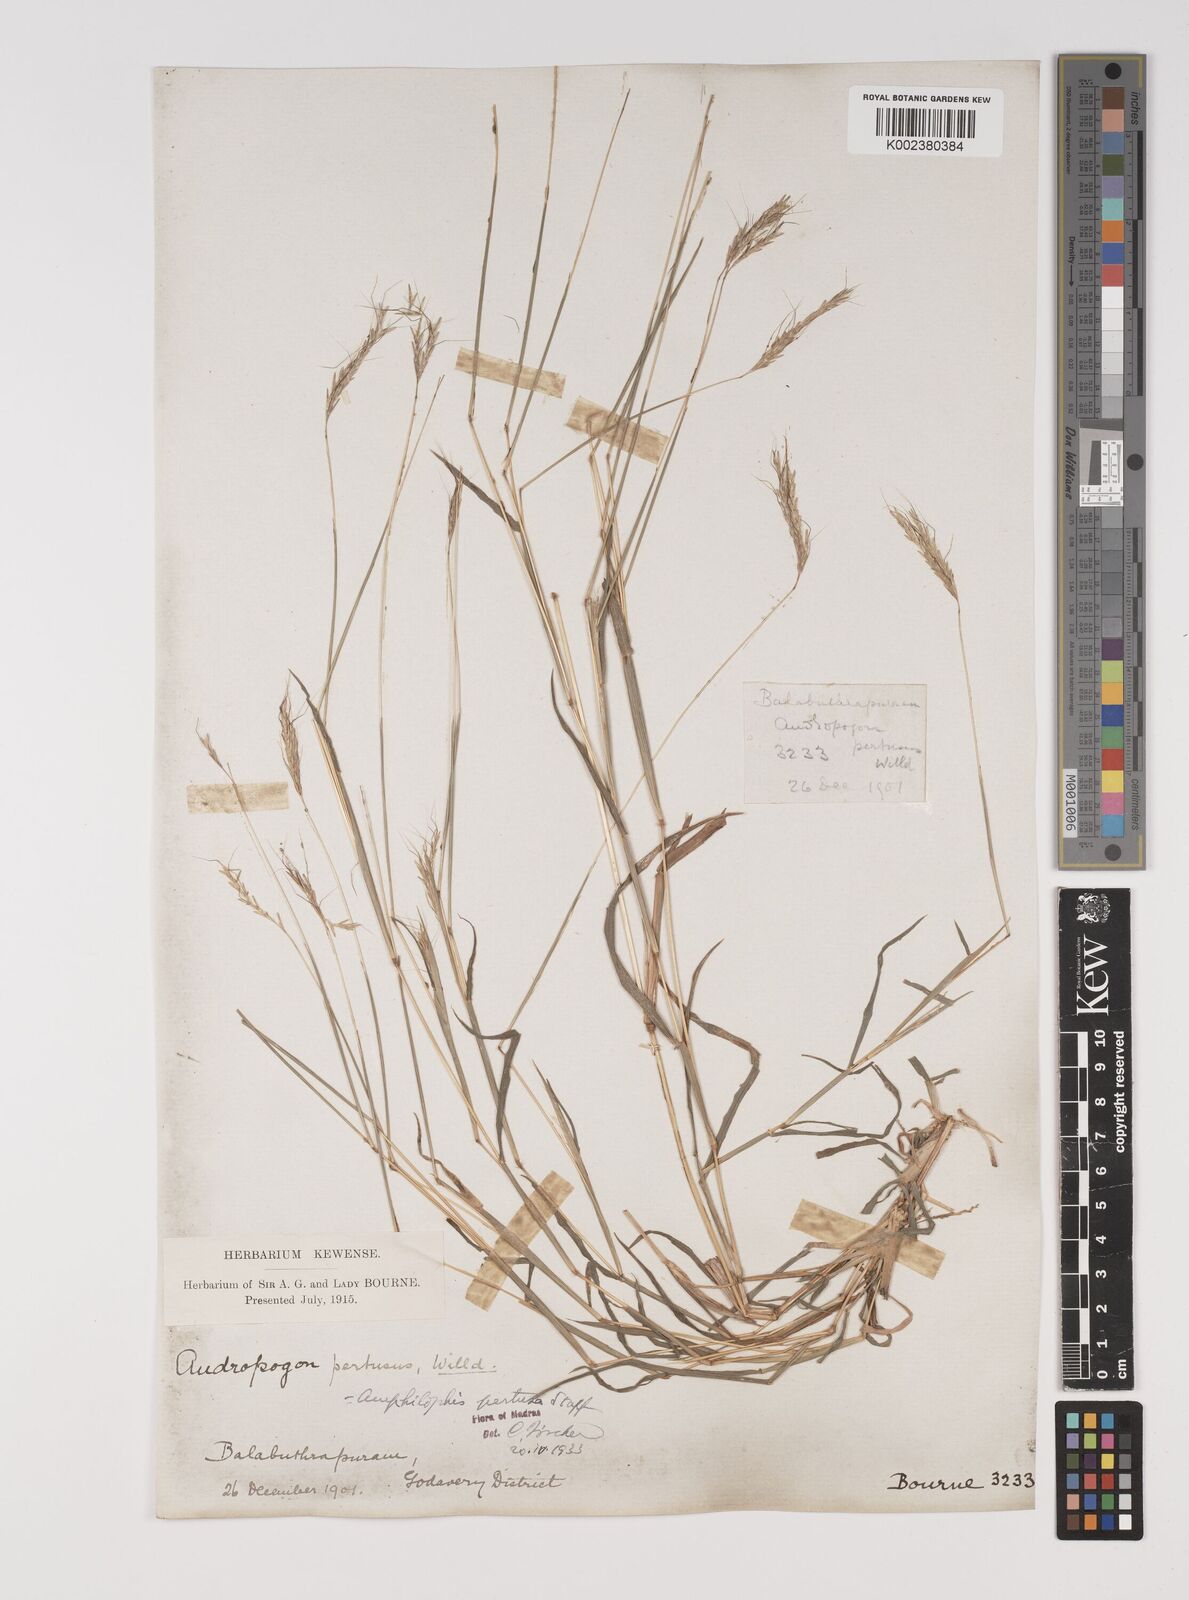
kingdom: Plantae
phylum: Tracheophyta
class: Liliopsida
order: Poales
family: Poaceae
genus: Bothriochloa
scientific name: Bothriochloa pertusa
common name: Pitted beardgrass
